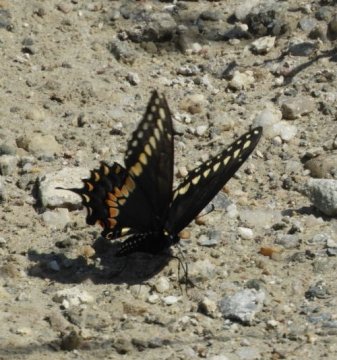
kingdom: Animalia
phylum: Arthropoda
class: Insecta
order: Lepidoptera
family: Papilionidae
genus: Papilio
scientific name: Papilio polyxenes
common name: Black Swallowtail
